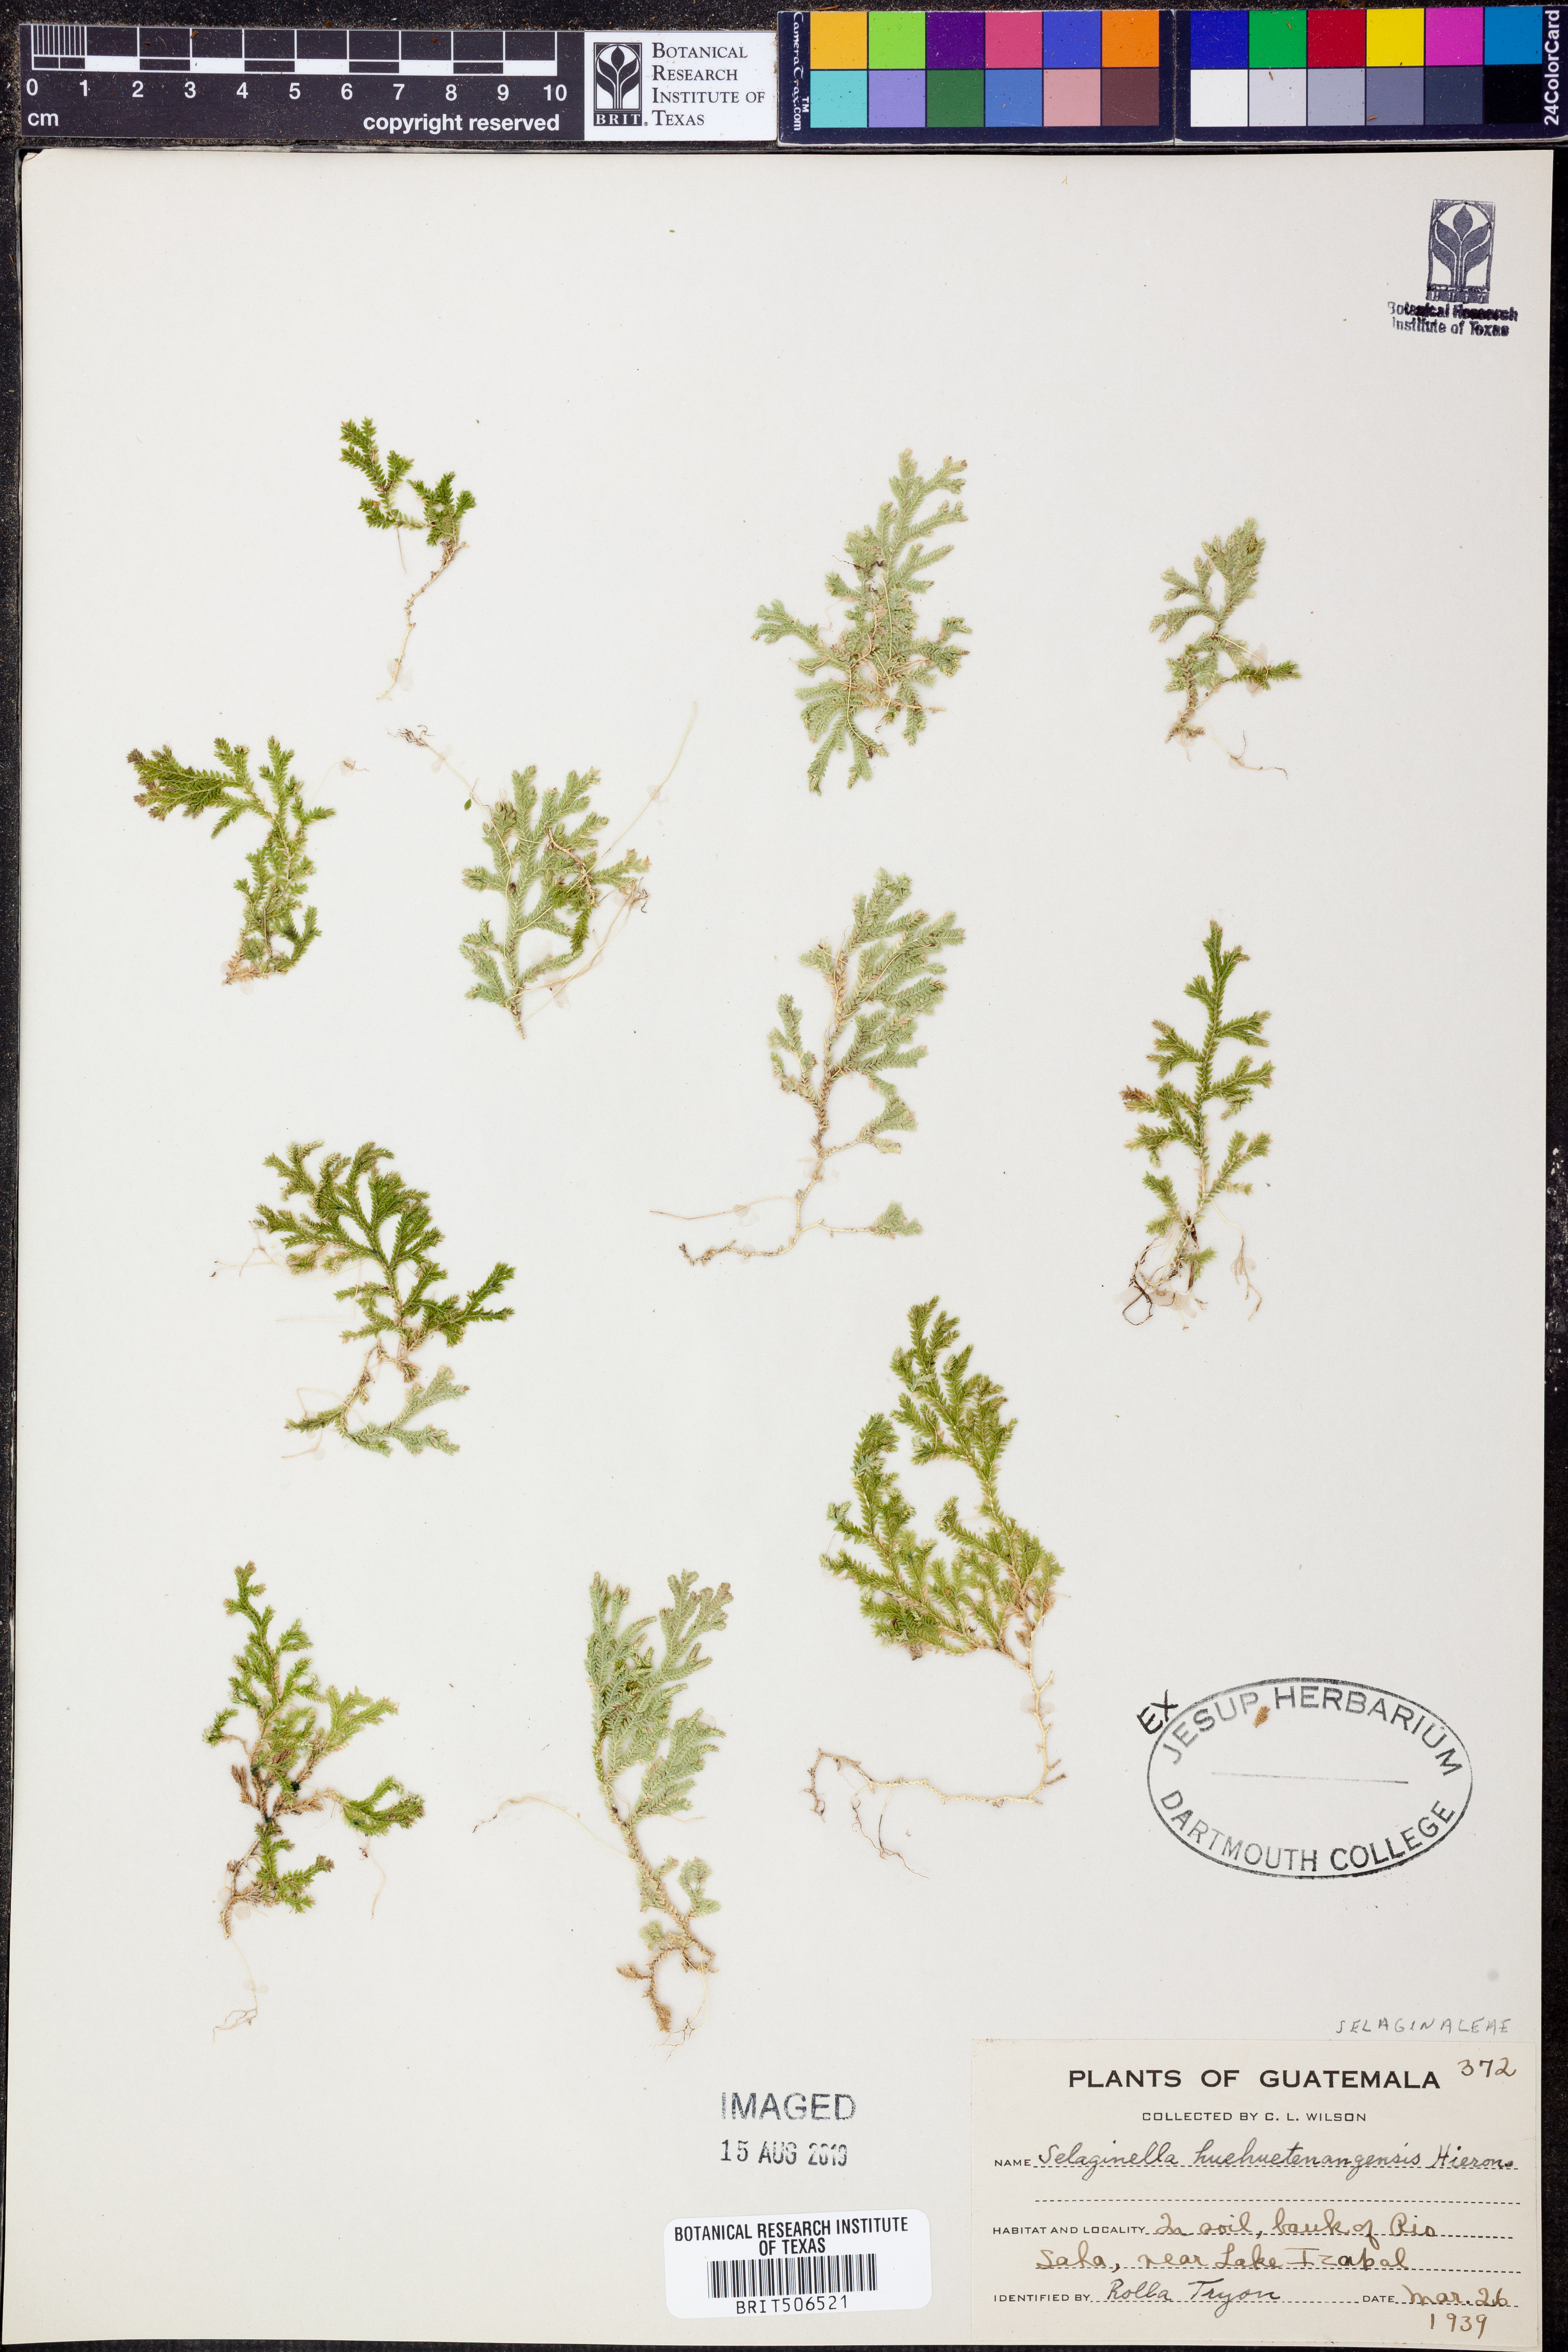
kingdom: Plantae
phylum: Tracheophyta
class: Lycopodiopsida
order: Selaginellales
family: Selaginellaceae
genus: Selaginella
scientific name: Selaginella huehuetenangensis
